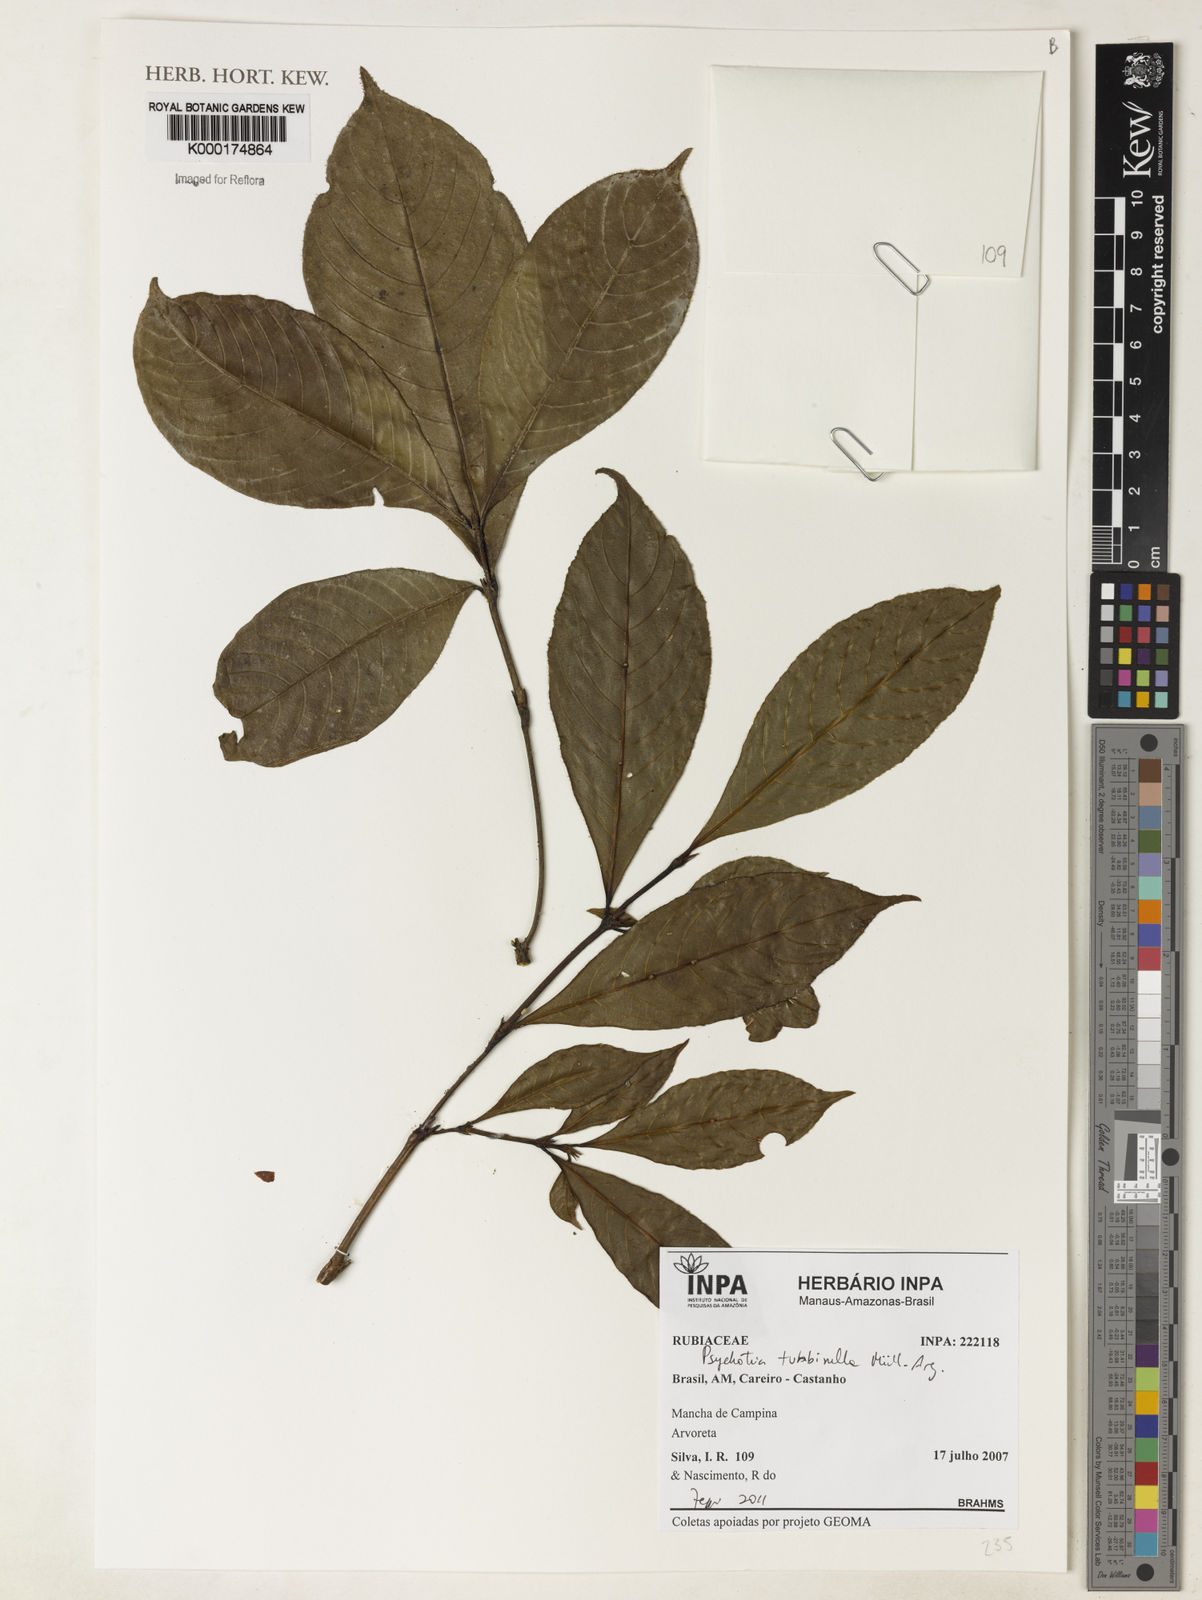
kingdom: Plantae
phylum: Tracheophyta
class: Magnoliopsida
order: Gentianales
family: Rubiaceae
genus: Psychotria
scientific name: Psychotria
